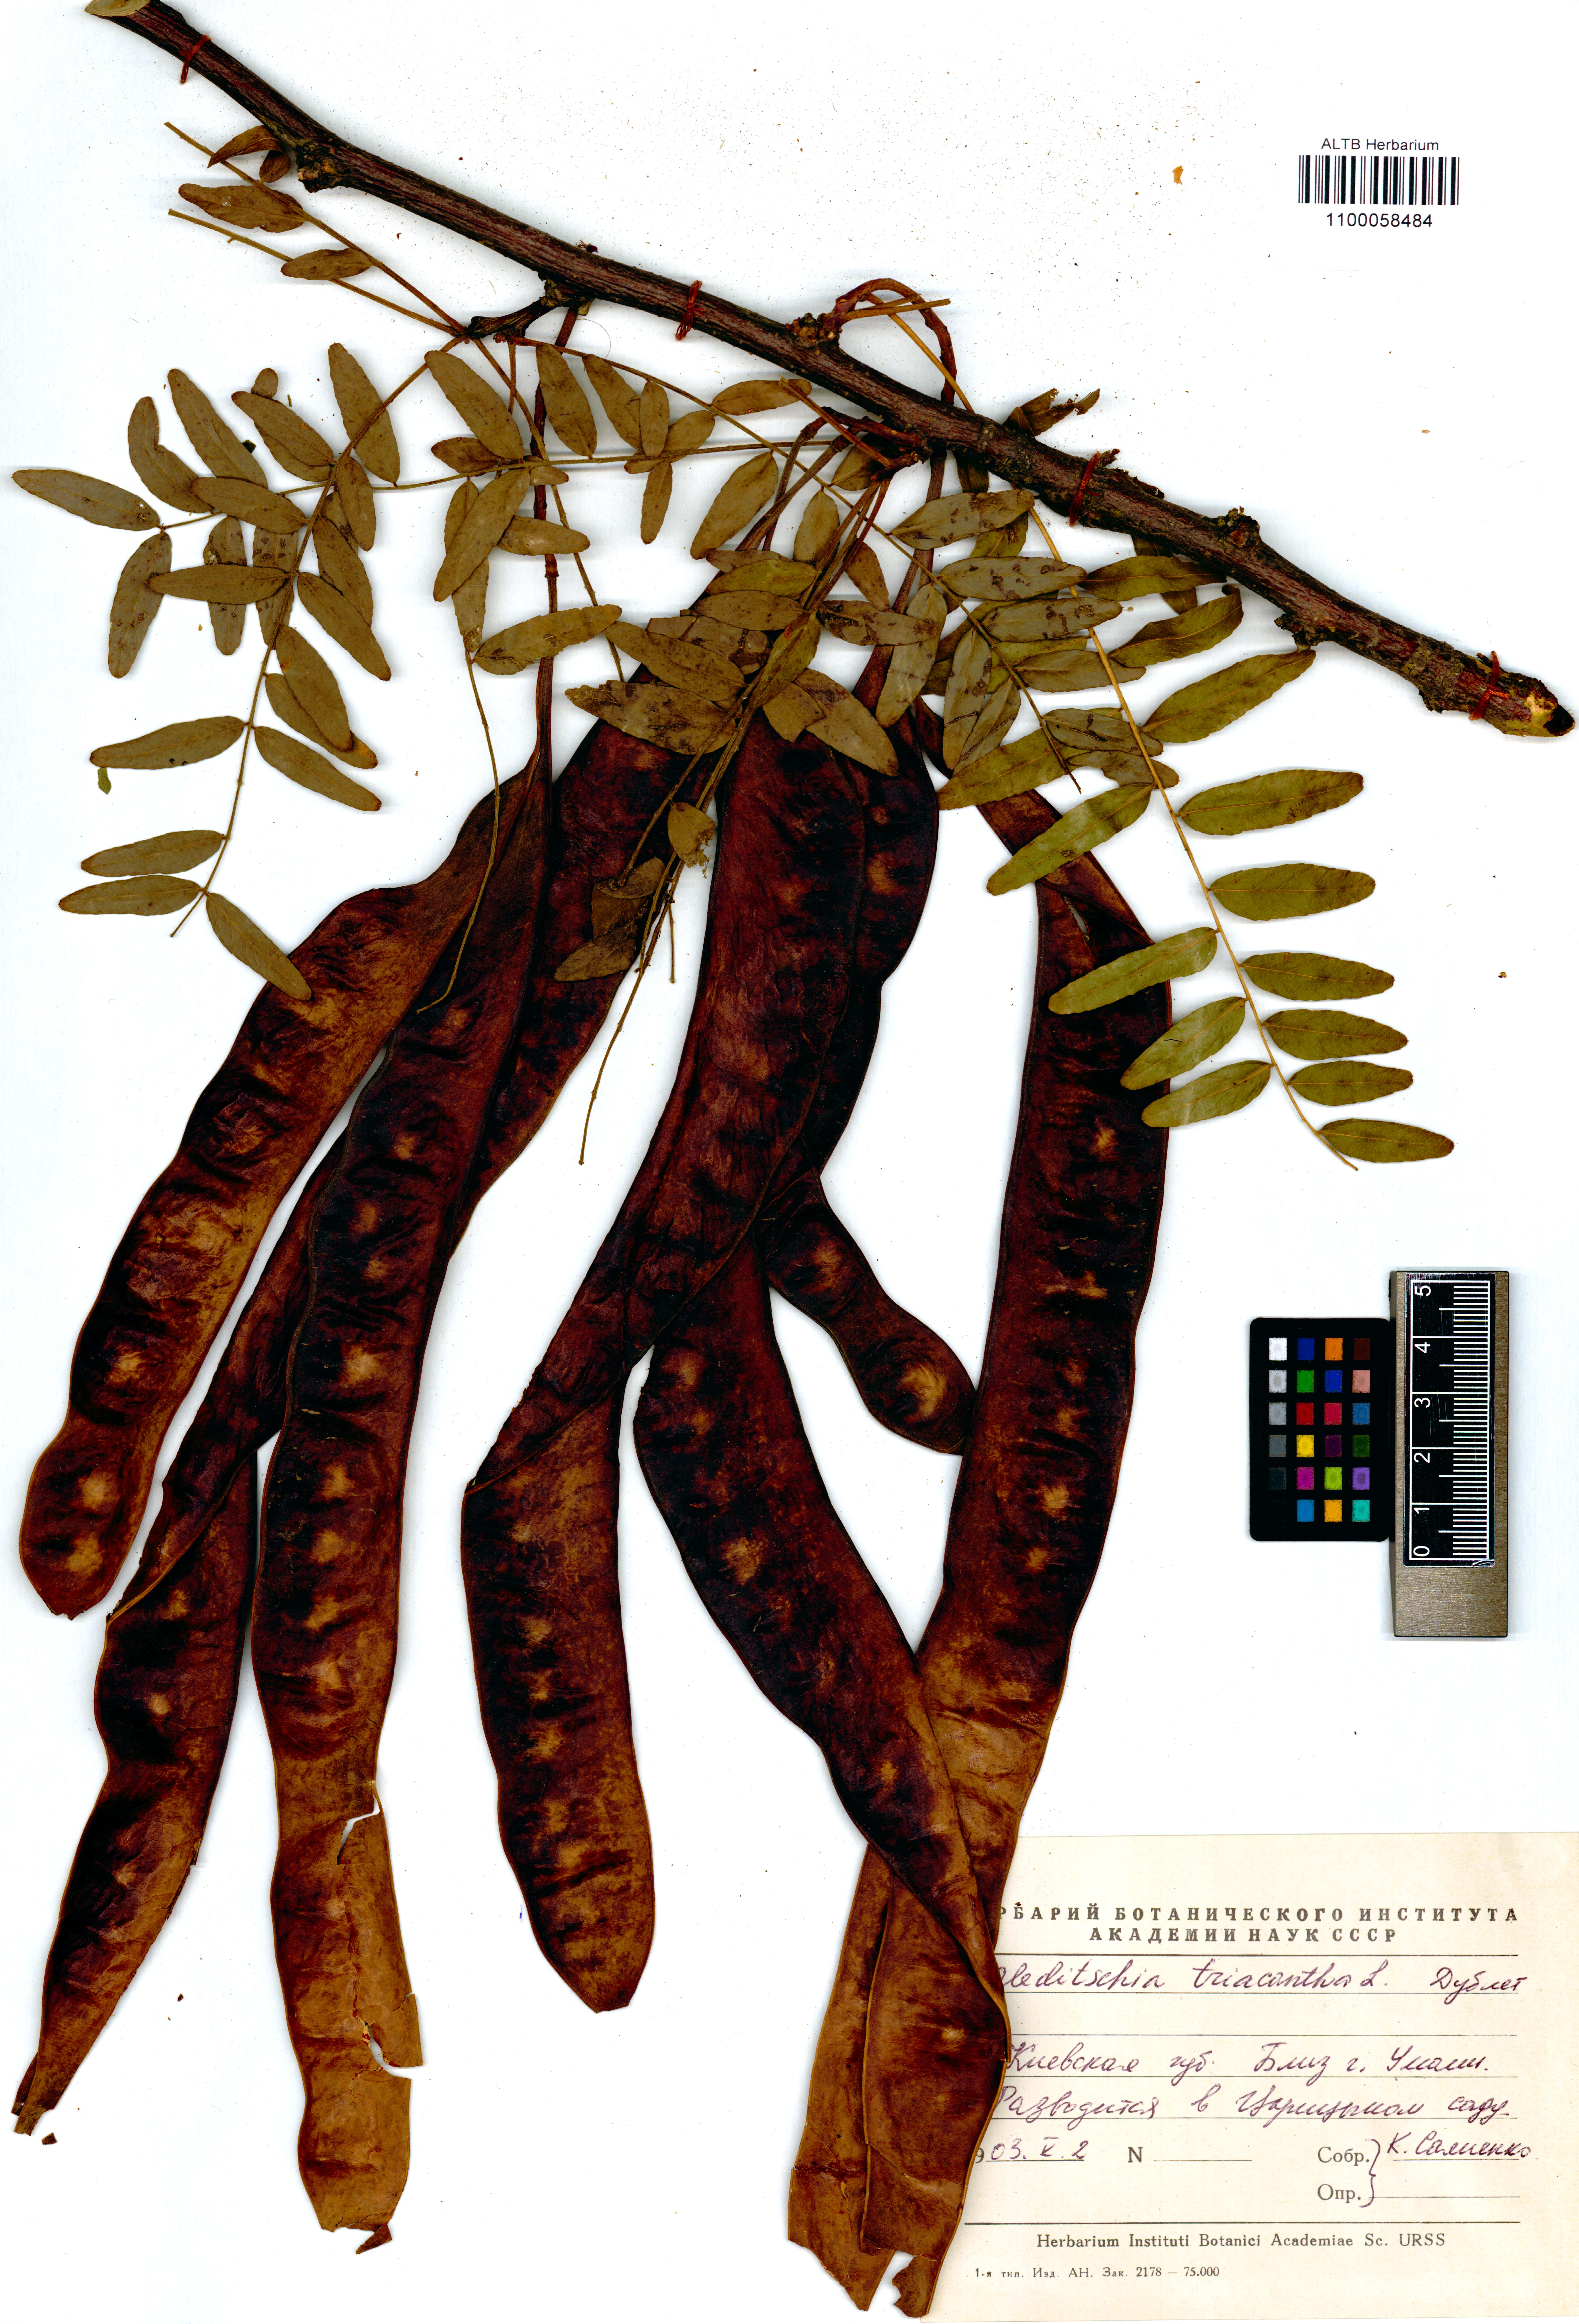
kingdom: Plantae
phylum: Tracheophyta
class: Magnoliopsida
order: Fabales
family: Fabaceae
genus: Gleditsia
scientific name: Gleditsia triacanthos
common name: Common honeylocust
